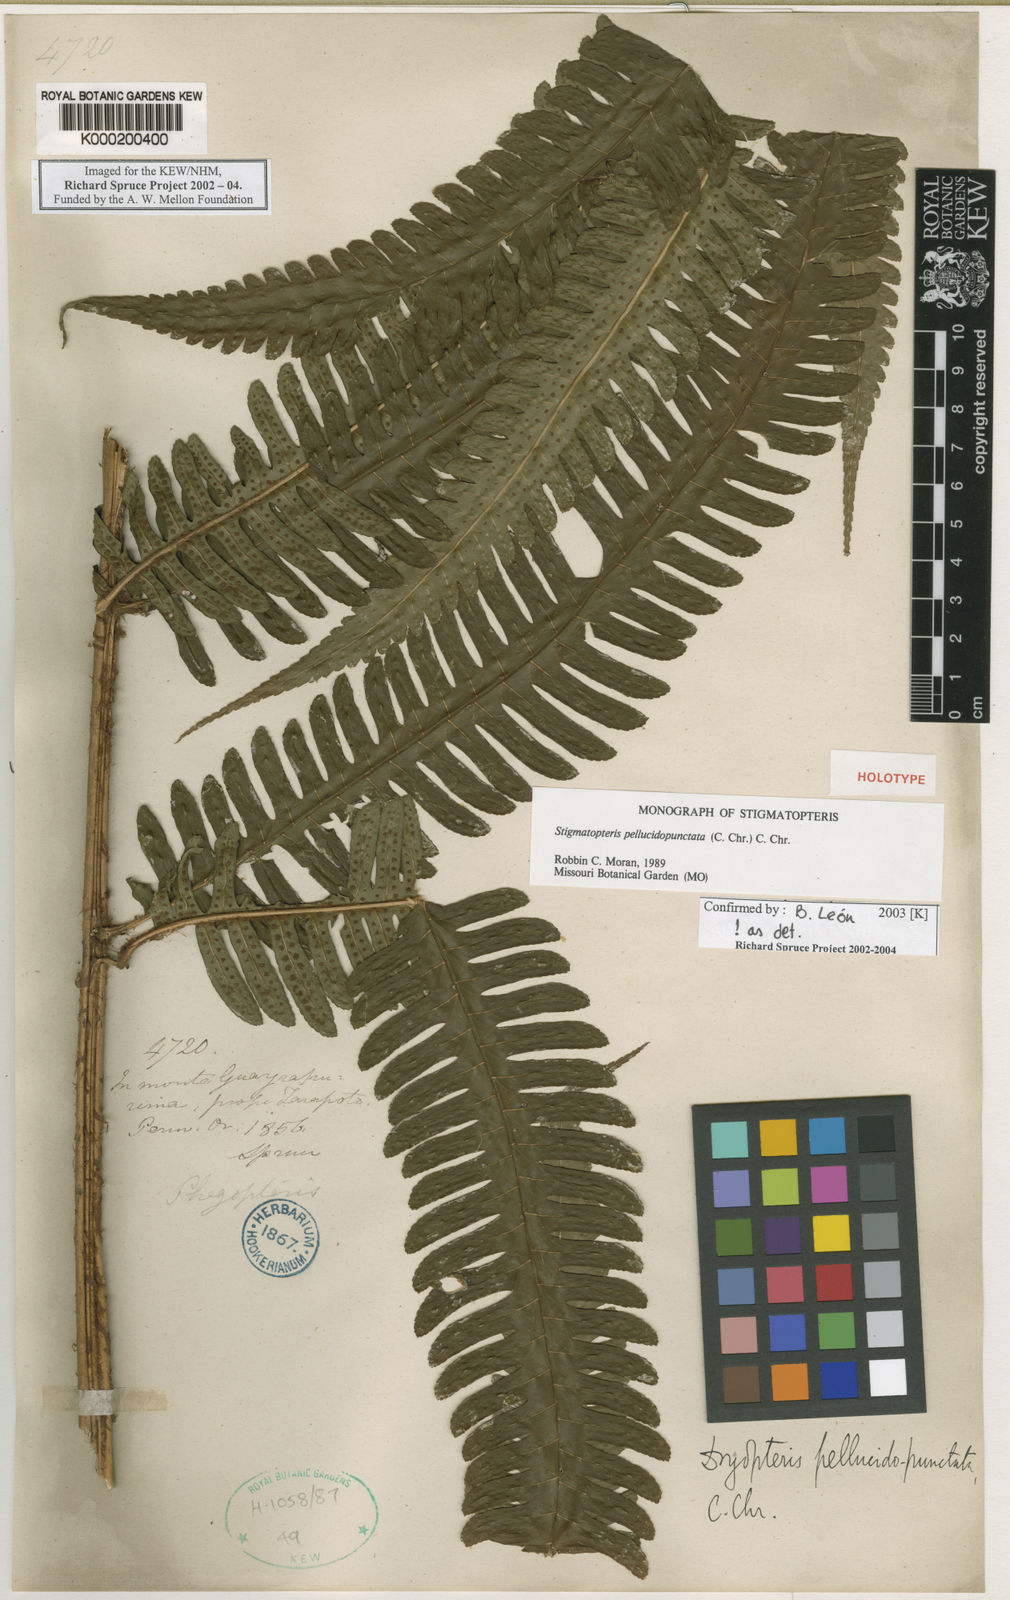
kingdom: Plantae
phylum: Tracheophyta
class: Polypodiopsida
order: Polypodiales
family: Dryopteridaceae
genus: Stigmatopteris
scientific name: Stigmatopteris pellucidopunctata
